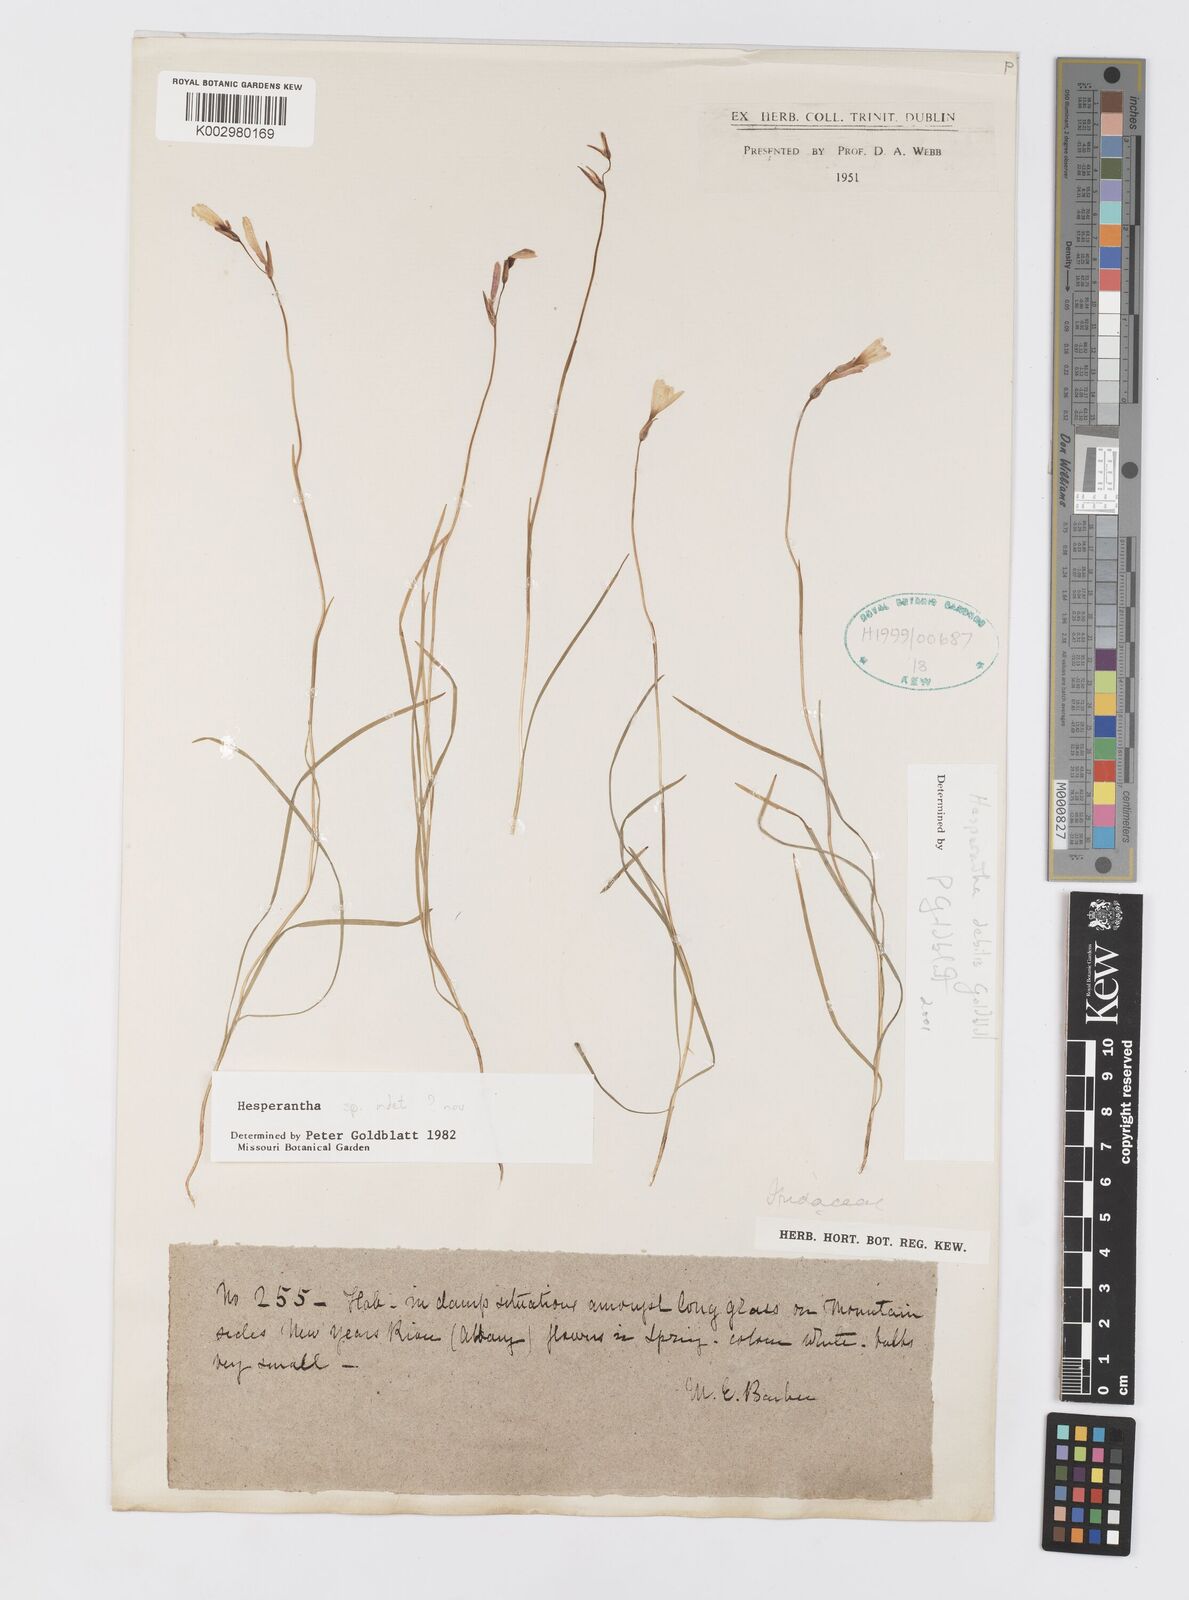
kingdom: Plantae
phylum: Tracheophyta
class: Liliopsida
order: Asparagales
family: Iridaceae
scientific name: Iridaceae
